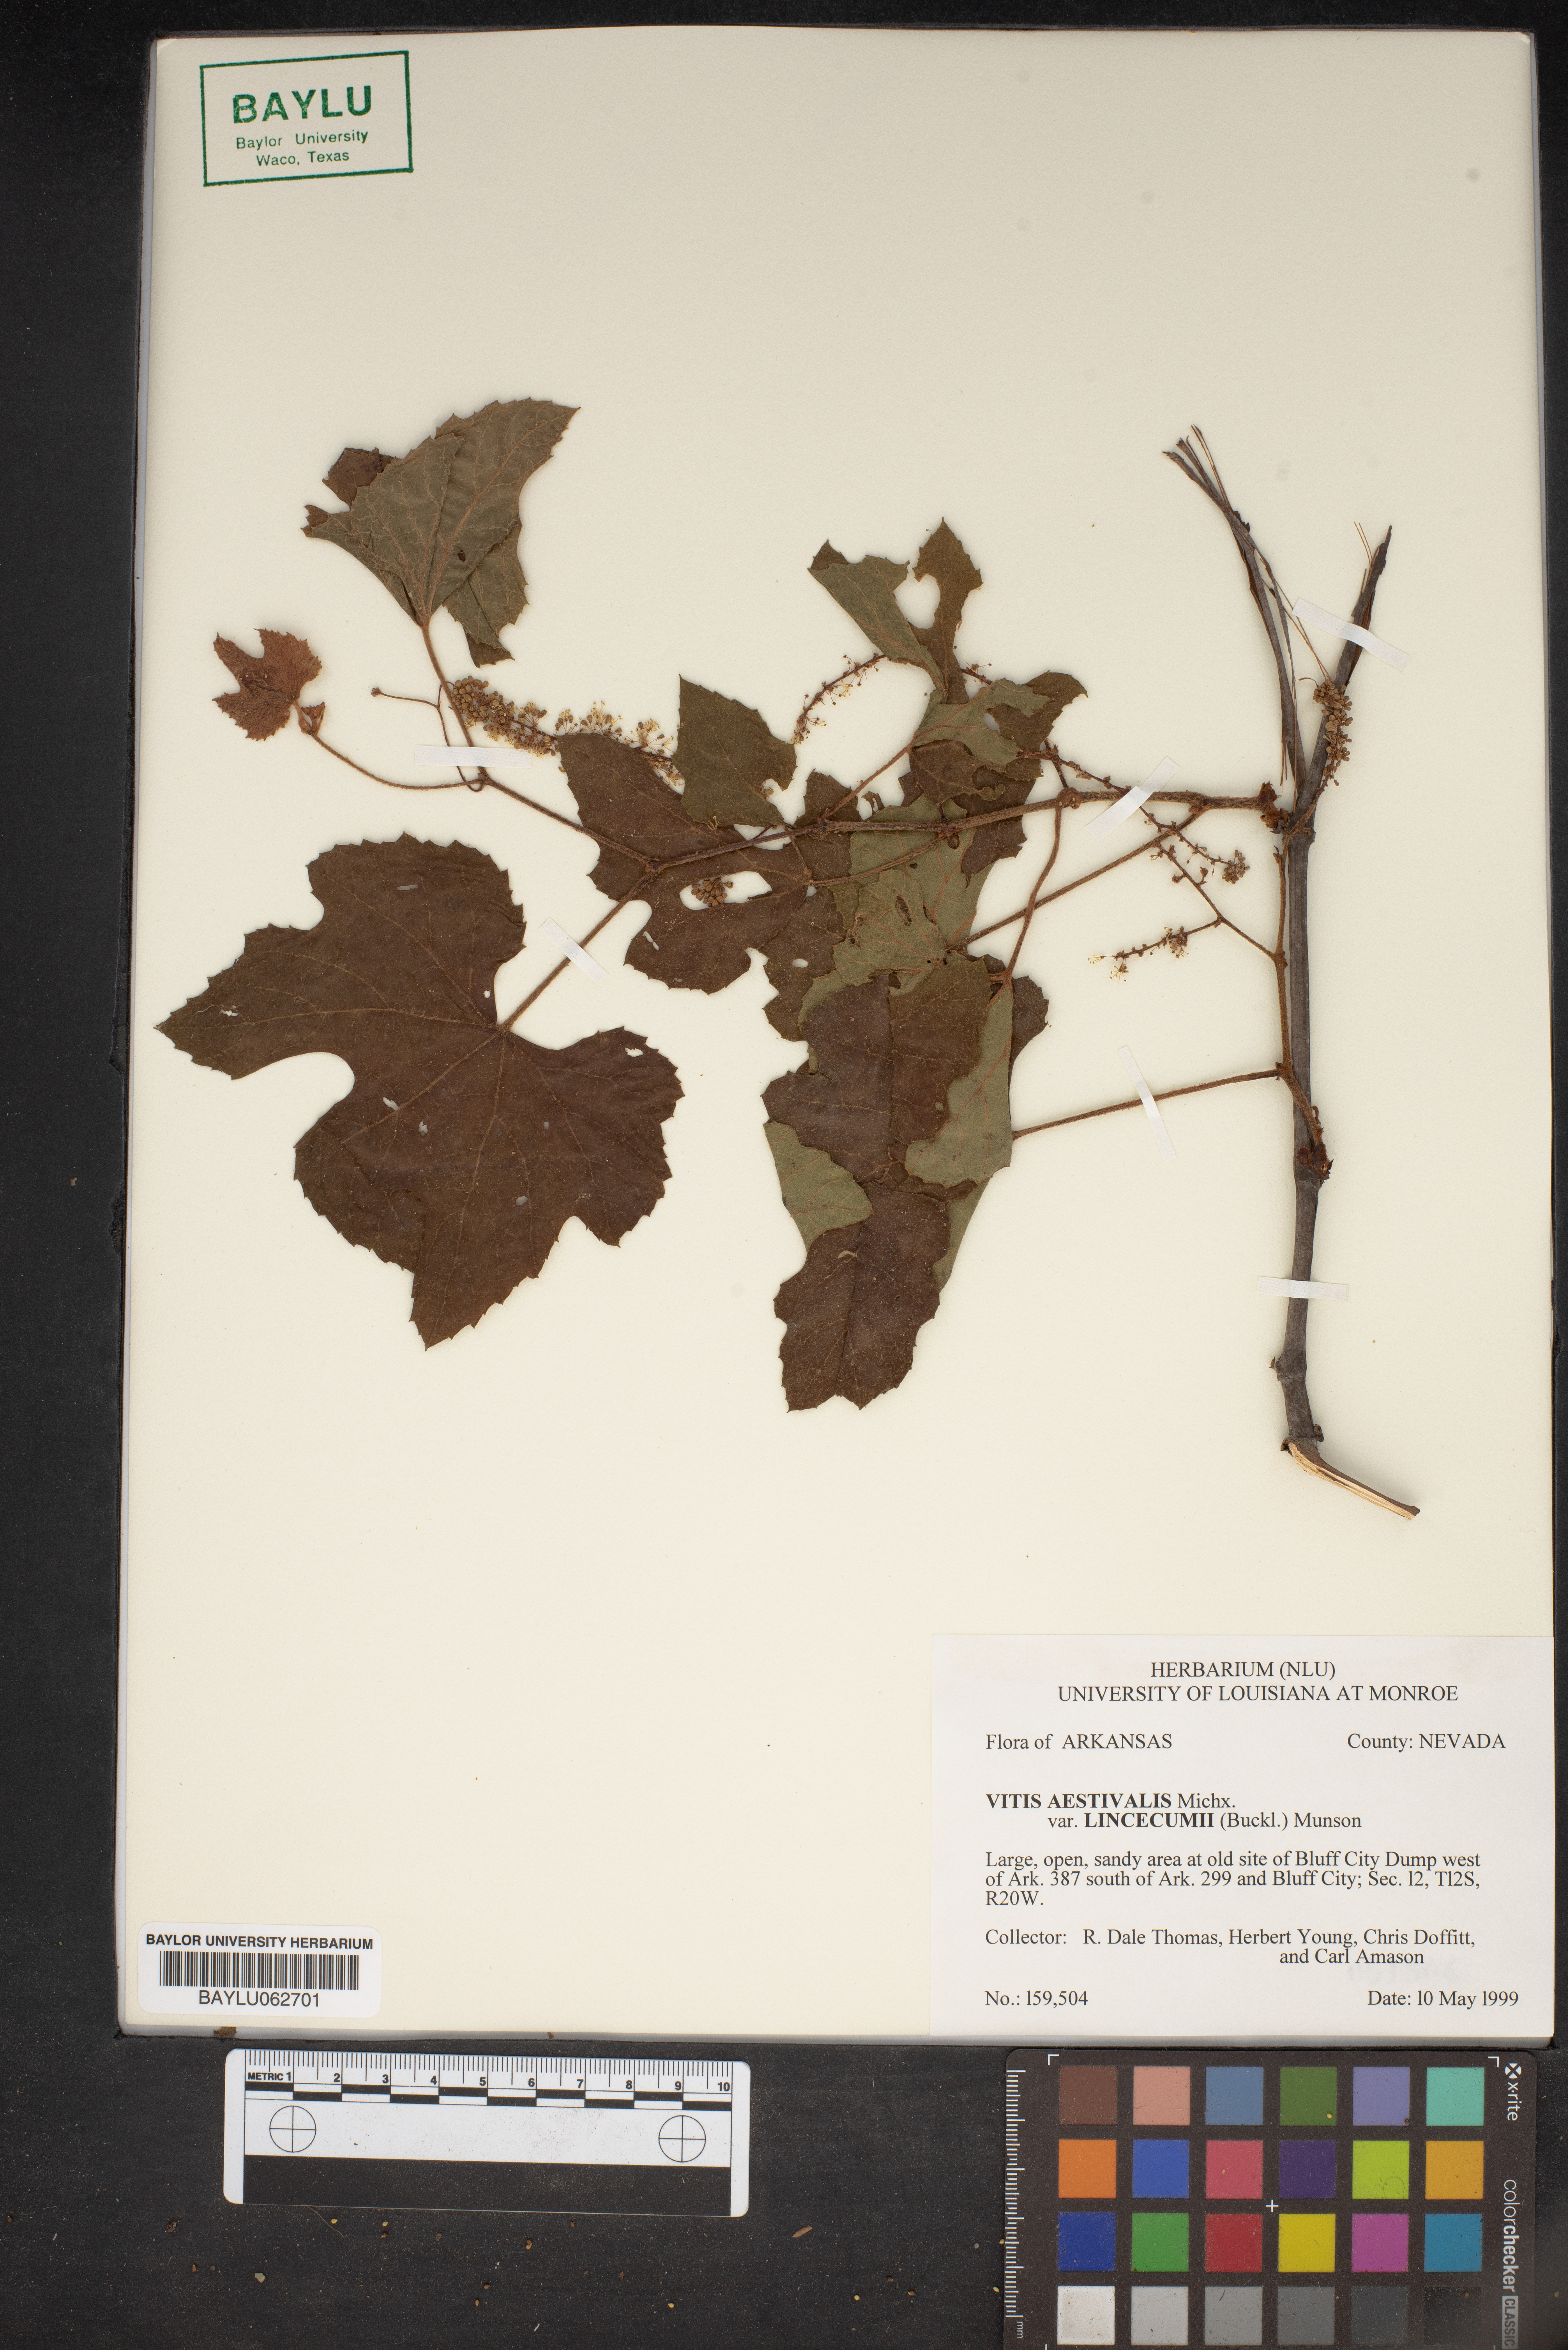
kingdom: Plantae
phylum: Tracheophyta
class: Magnoliopsida
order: Vitales
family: Vitaceae
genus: Vitis
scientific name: Vitis aestivalis
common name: Pigeon grape
